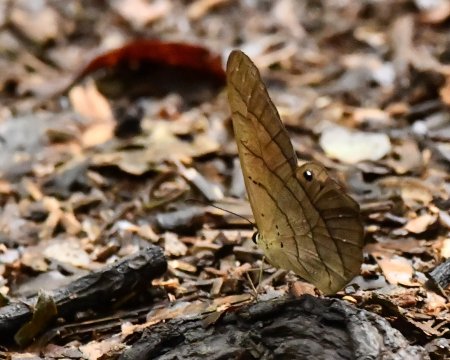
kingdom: Animalia
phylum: Arthropoda
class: Insecta
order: Lepidoptera
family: Nymphalidae
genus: Pierella
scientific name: Pierella luna
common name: Moon Satyr
